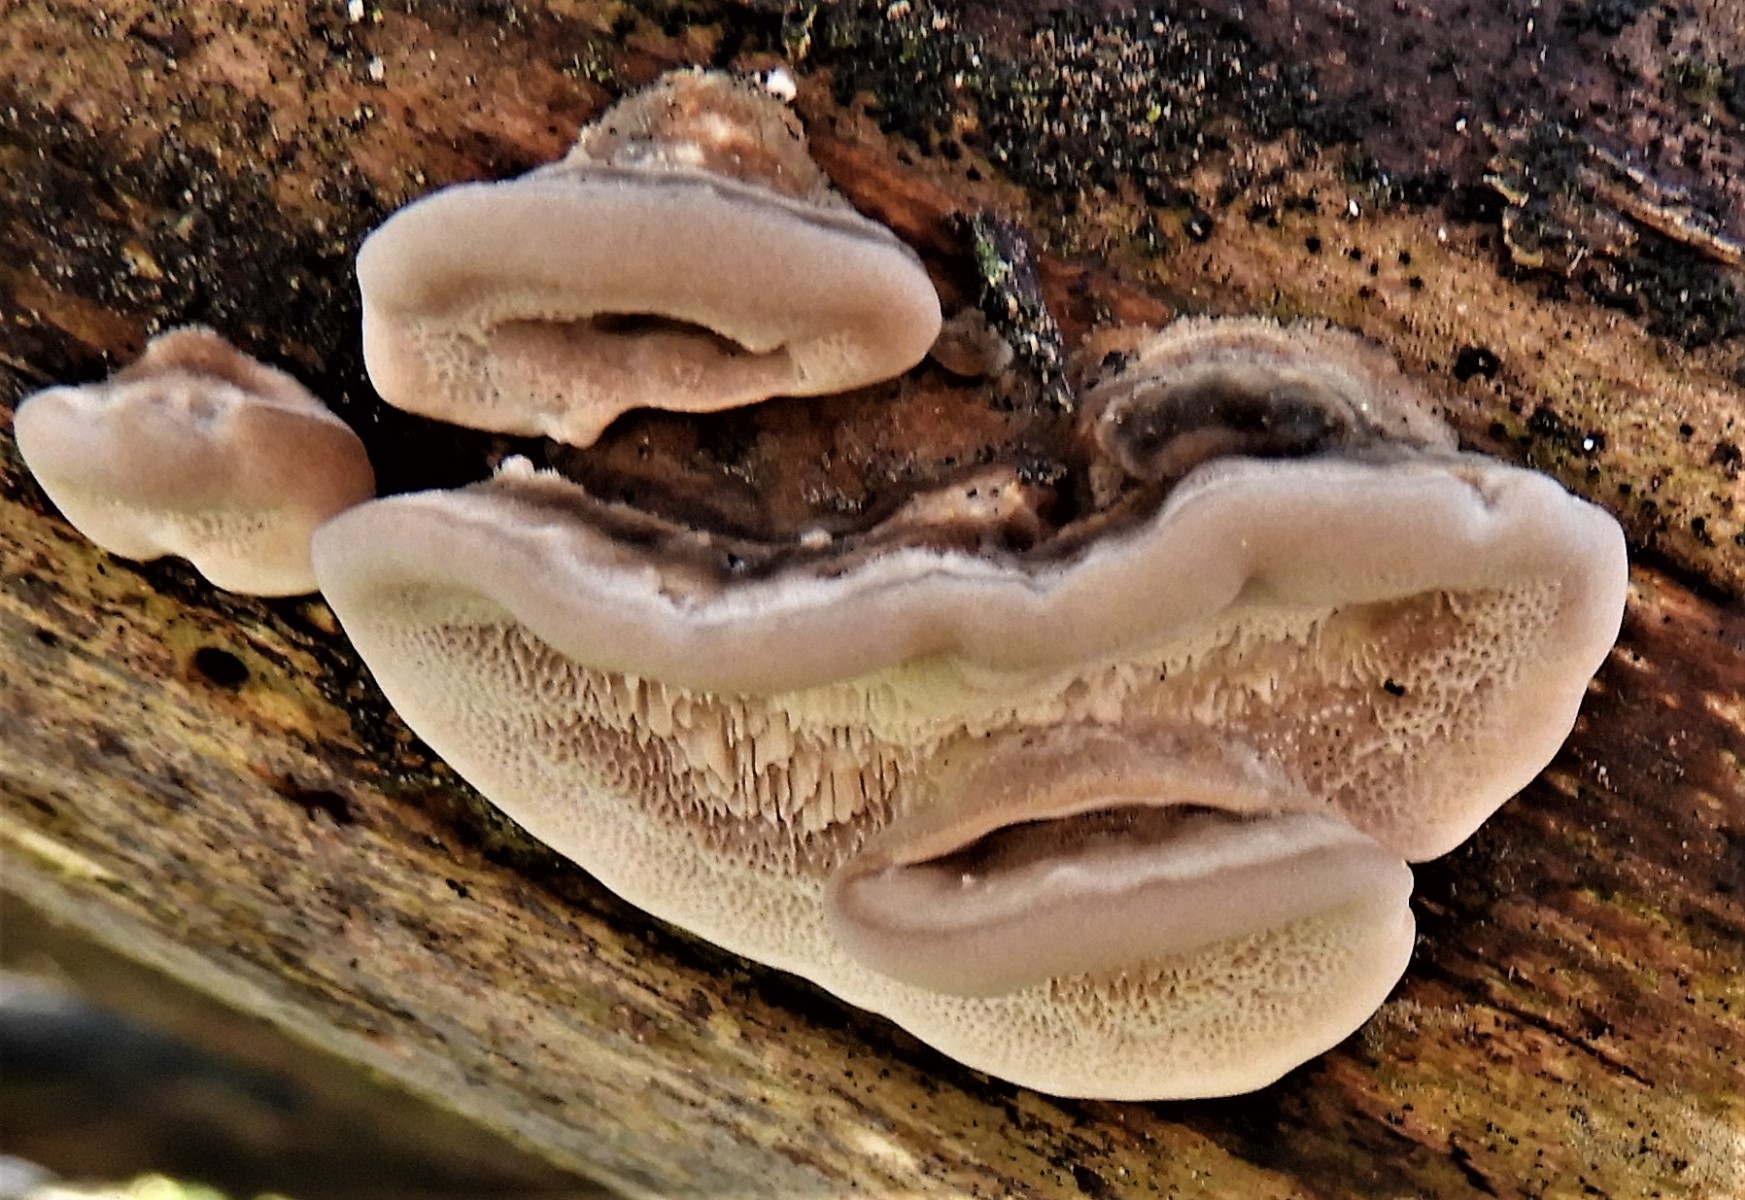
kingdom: Fungi
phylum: Basidiomycota
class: Agaricomycetes
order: Polyporales
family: Polyporaceae
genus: Trametes
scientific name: Trametes
